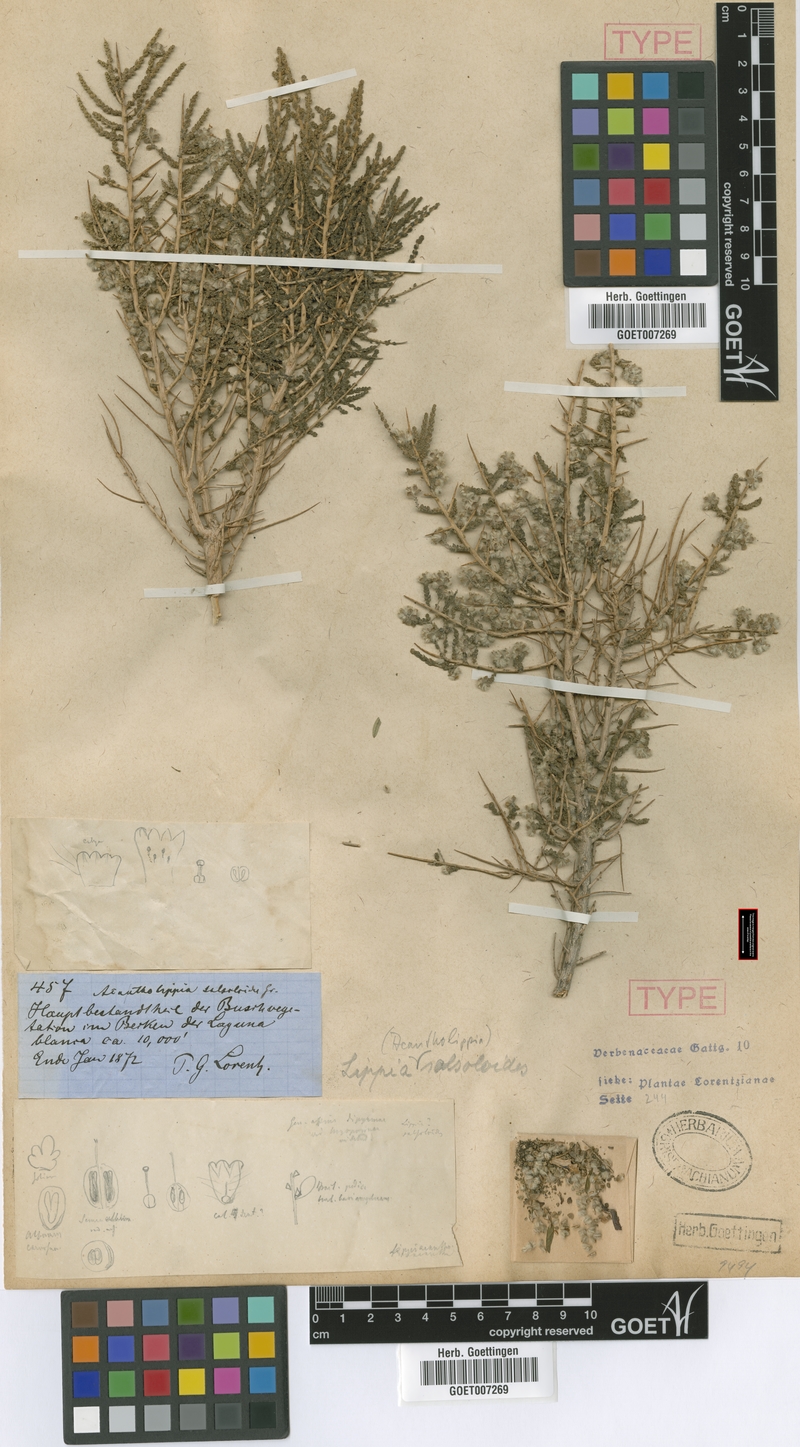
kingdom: Plantae
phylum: Tracheophyta
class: Magnoliopsida
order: Lamiales
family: Verbenaceae
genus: Aloysia
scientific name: Aloysia salsoloides
